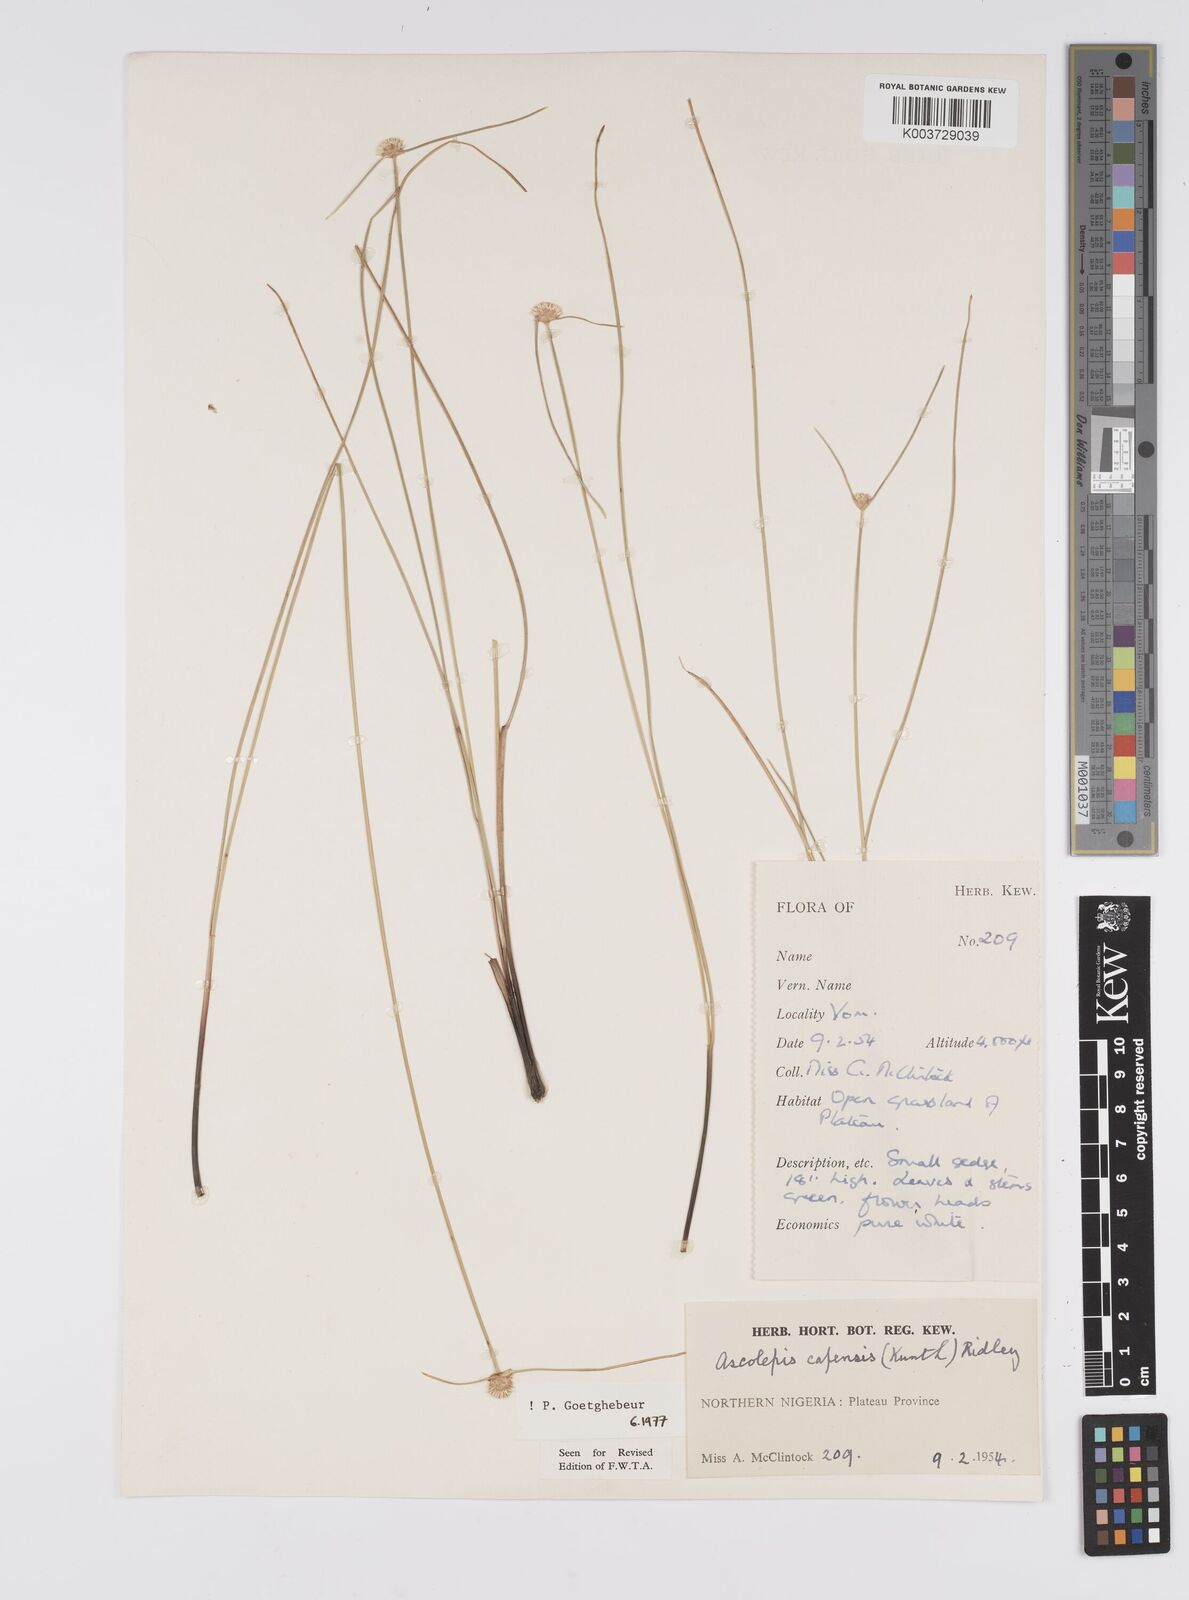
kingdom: Plantae
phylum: Tracheophyta
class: Liliopsida
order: Poales
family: Cyperaceae
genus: Ascolepis
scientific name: Ascolepis
